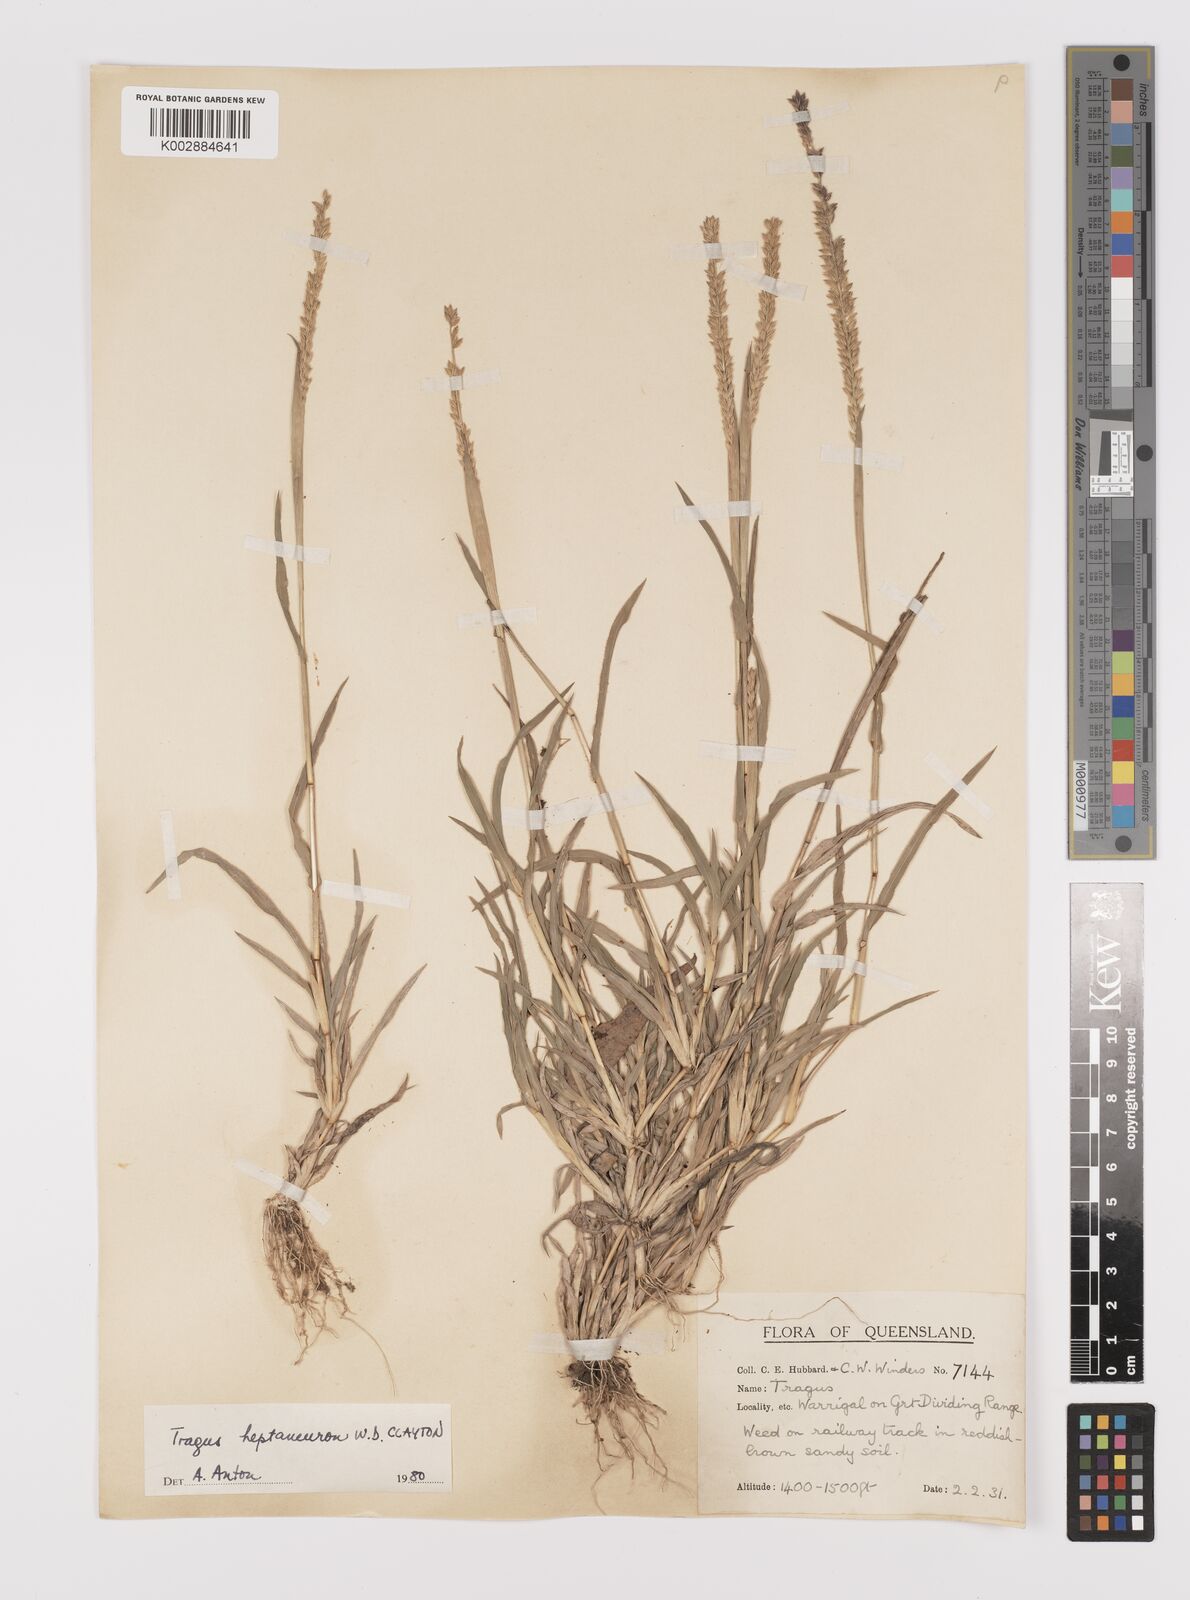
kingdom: Plantae
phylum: Tracheophyta
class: Liliopsida
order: Poales
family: Poaceae
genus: Tragus
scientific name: Tragus australianus
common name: Australian bur-grass
